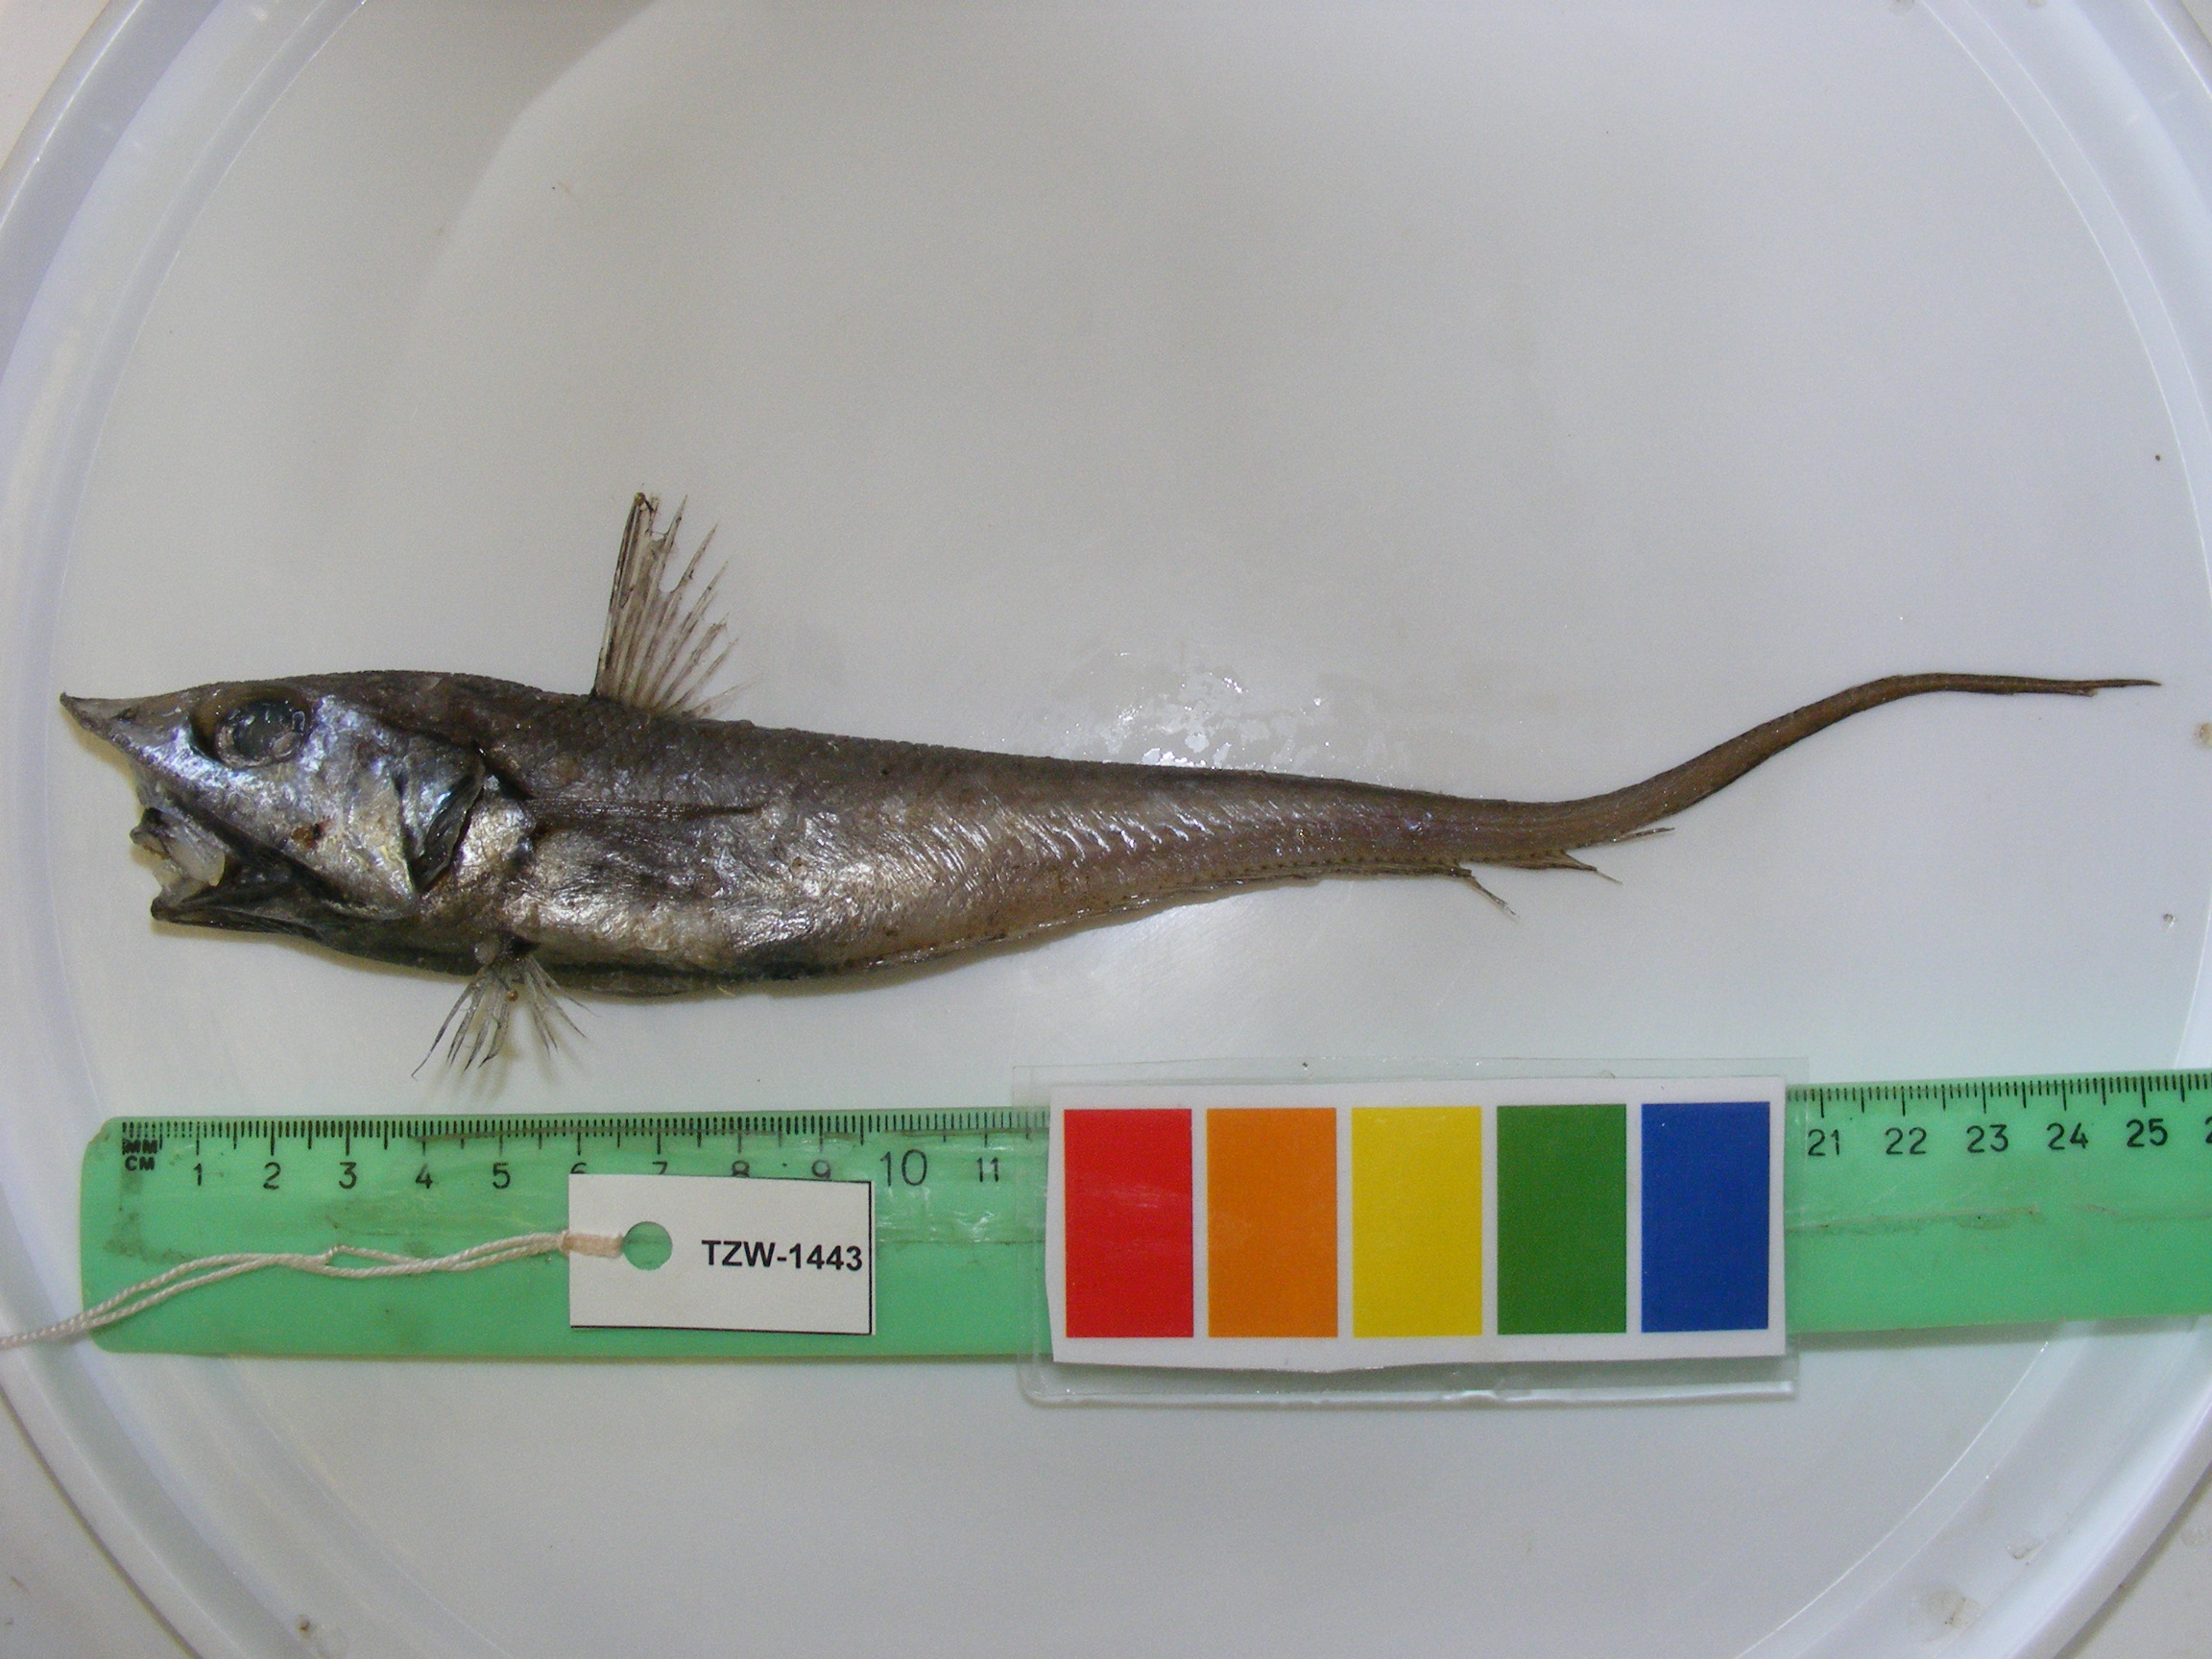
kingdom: Animalia
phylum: Chordata
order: Gadiformes
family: Macrouridae
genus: Coelorinchus
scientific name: Coelorinchus denticulatus
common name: Filesnout grenadier
